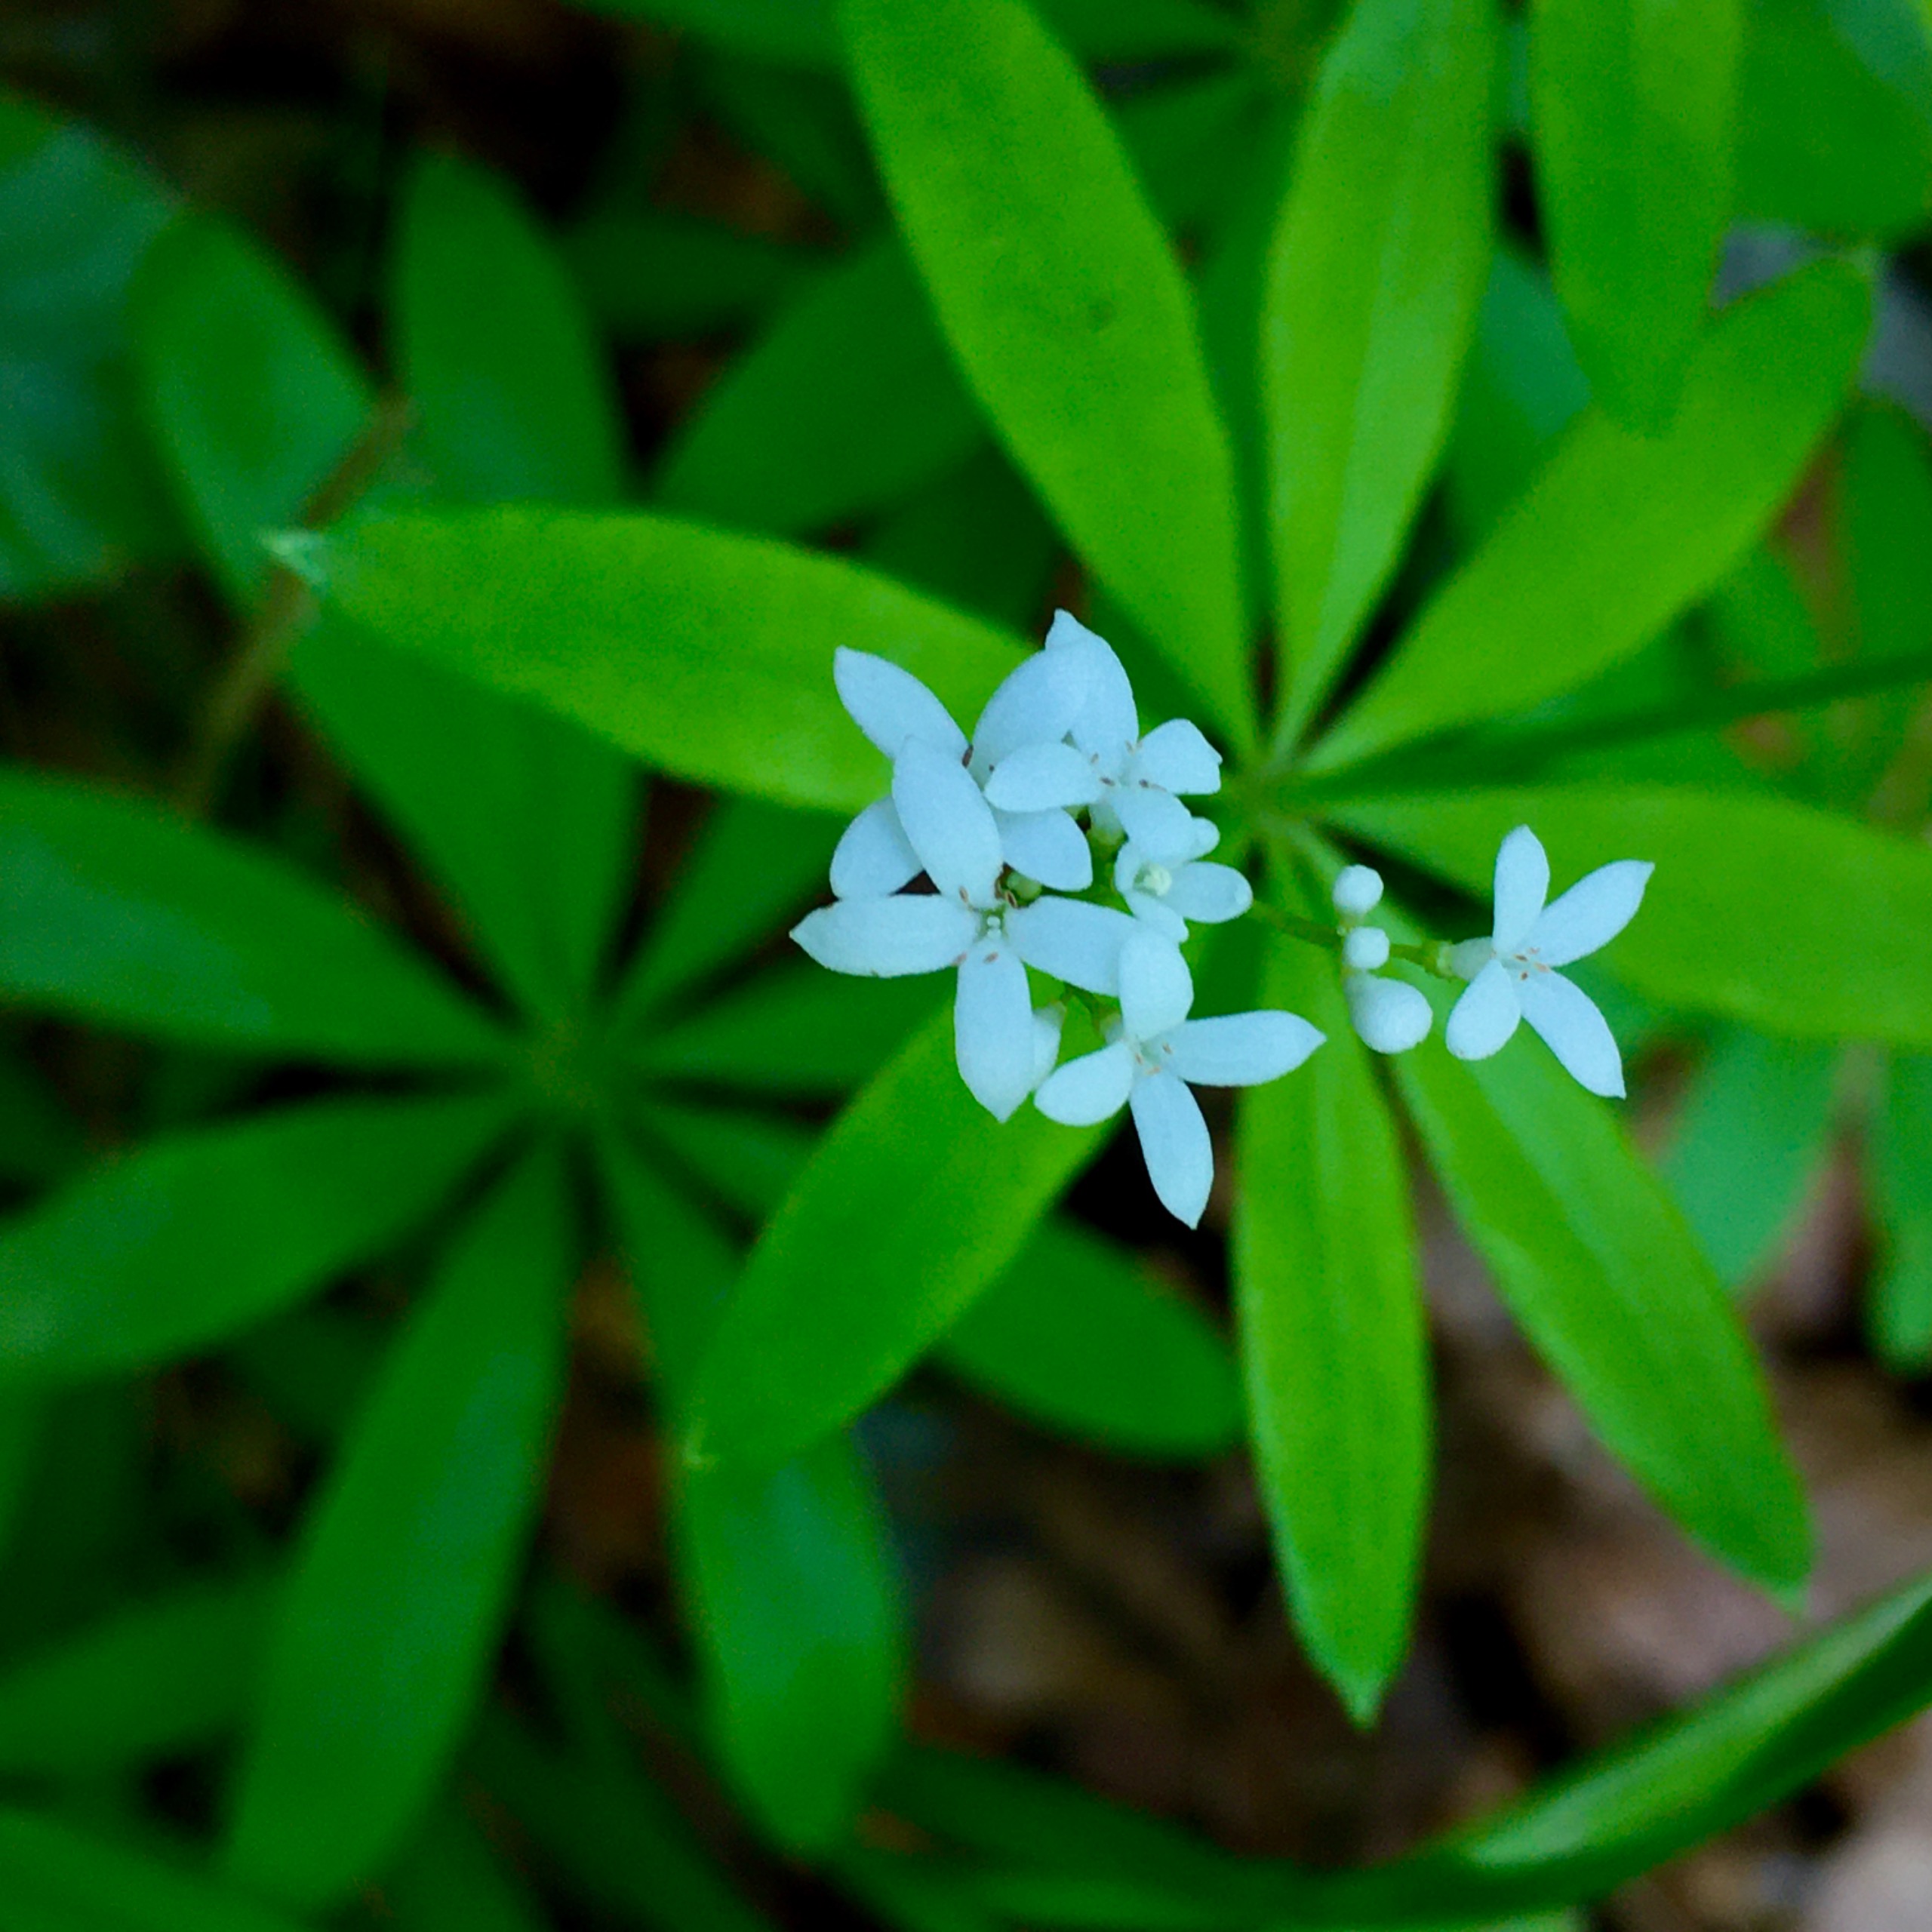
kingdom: Plantae
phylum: Tracheophyta
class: Magnoliopsida
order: Gentianales
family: Rubiaceae
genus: Galium
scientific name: Galium odoratum
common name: Skovmærke
